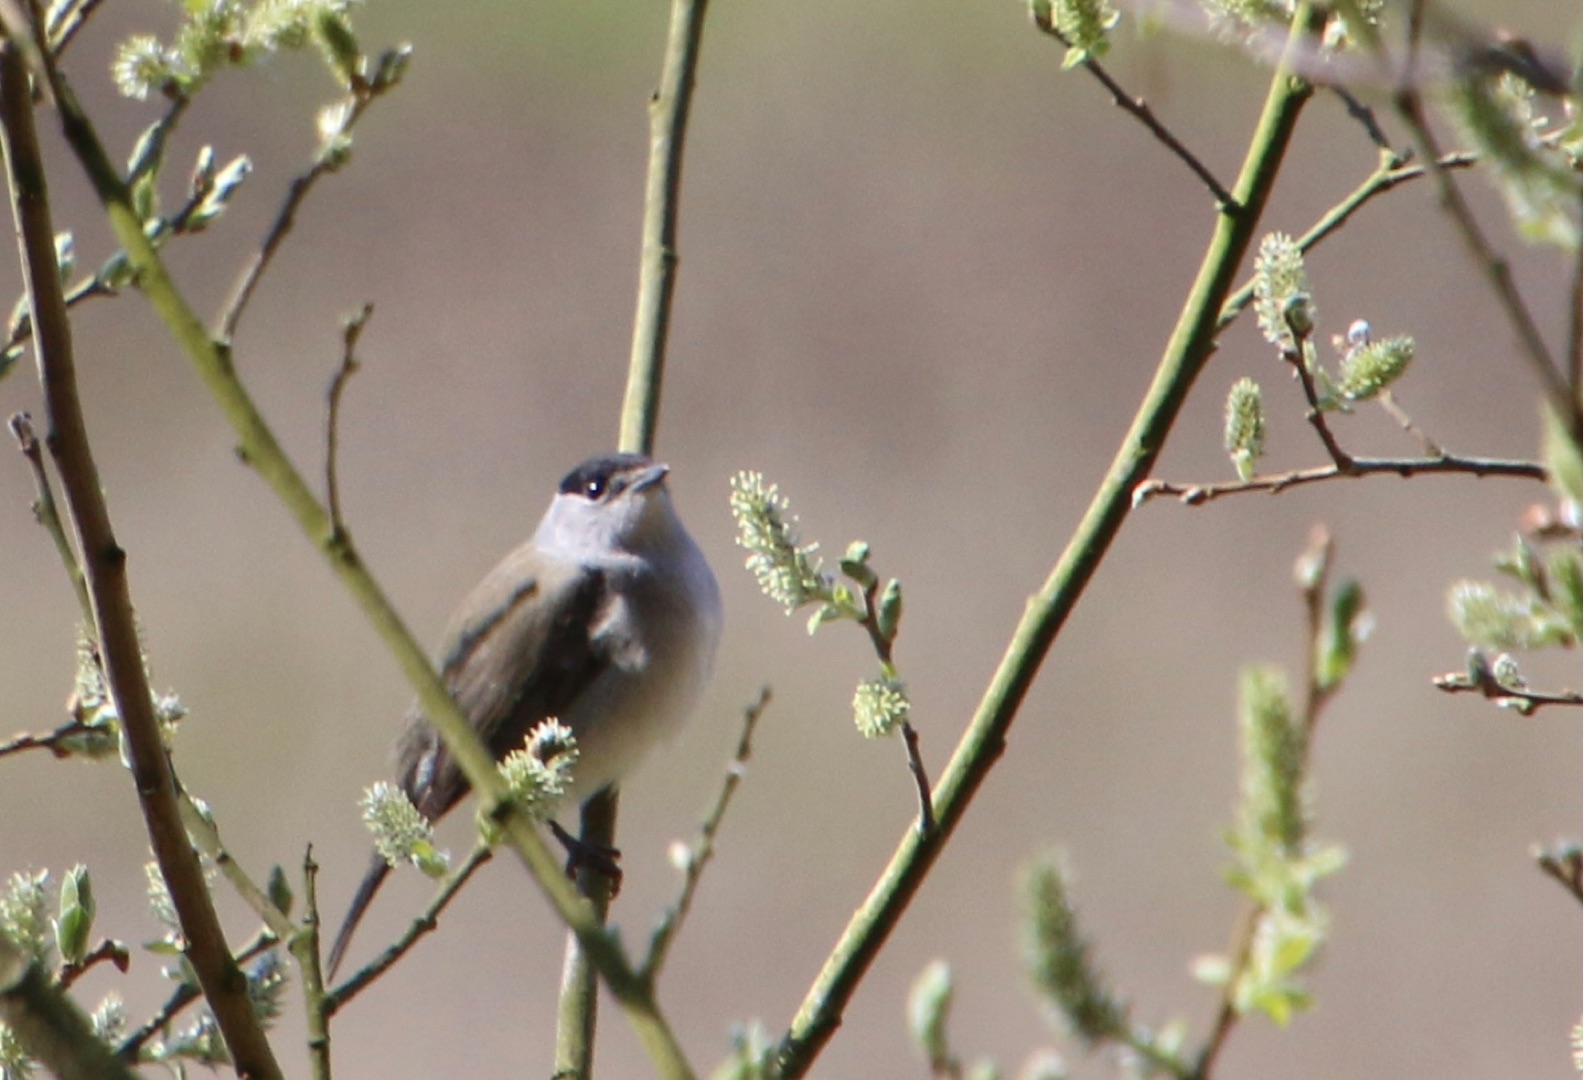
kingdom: Animalia
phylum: Chordata
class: Aves
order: Passeriformes
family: Sylviidae
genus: Sylvia
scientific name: Sylvia atricapilla
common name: Munk
